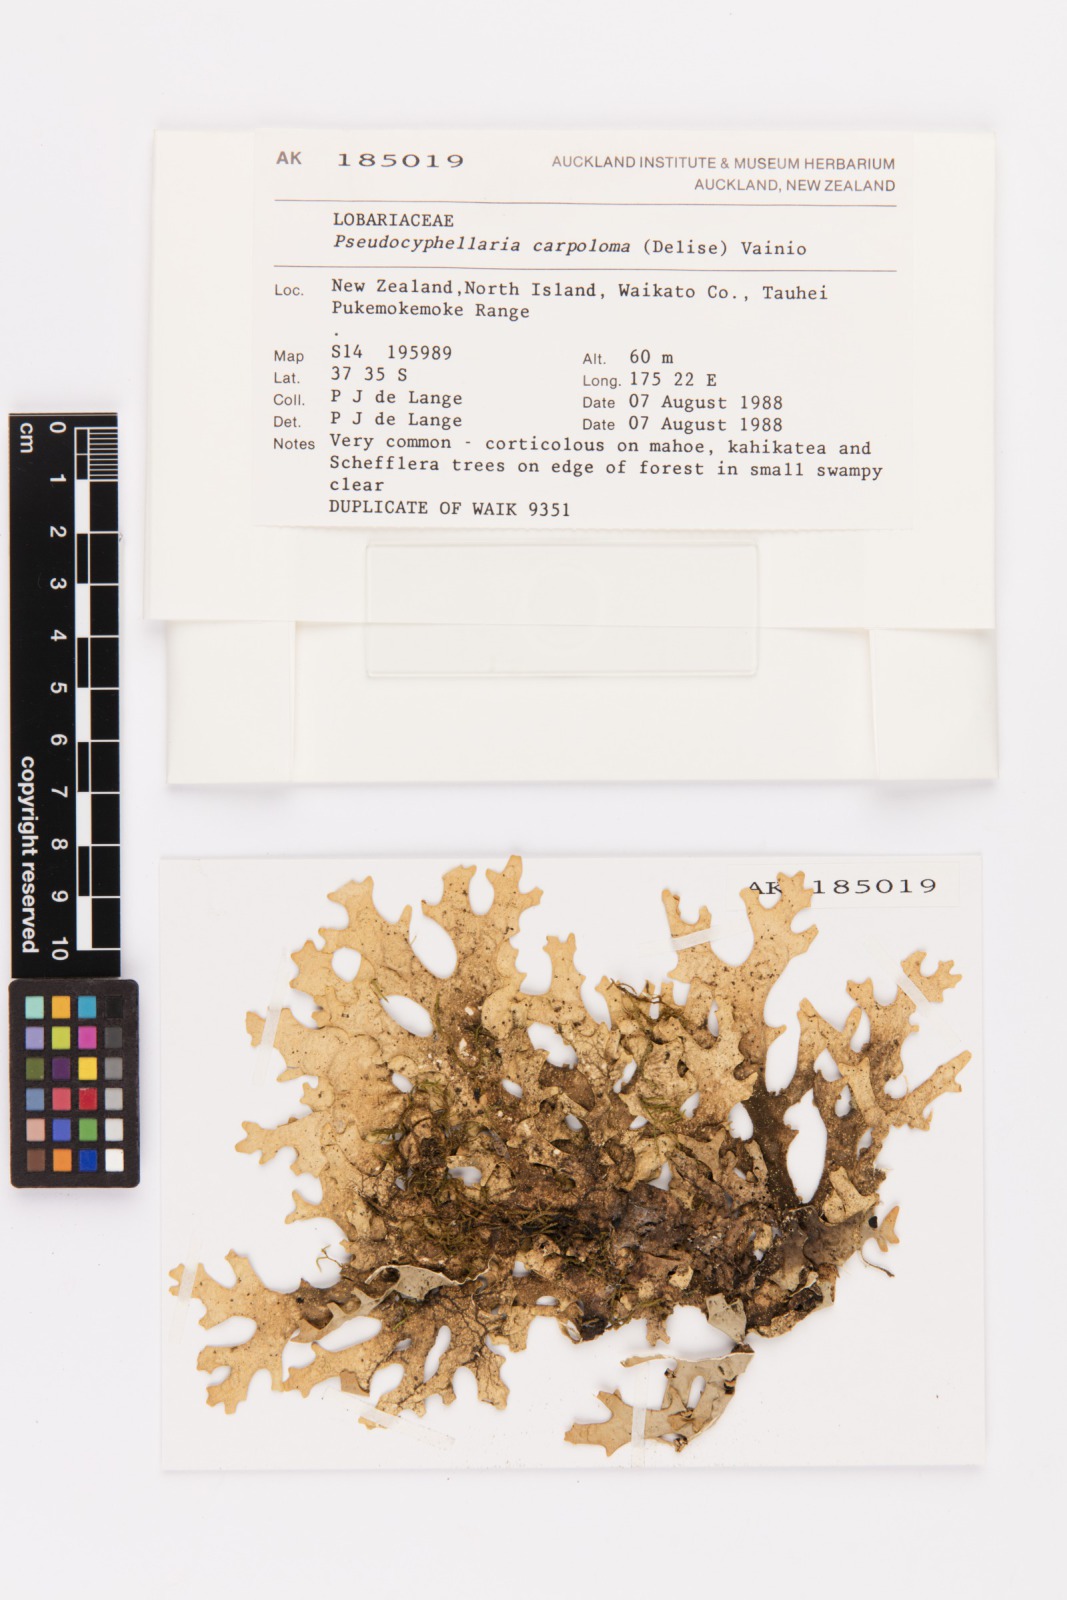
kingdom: Fungi
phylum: Ascomycota
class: Lecanoromycetes
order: Peltigerales
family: Lobariaceae
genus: Pseudocyphellaria
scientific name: Pseudocyphellaria carpoloma
